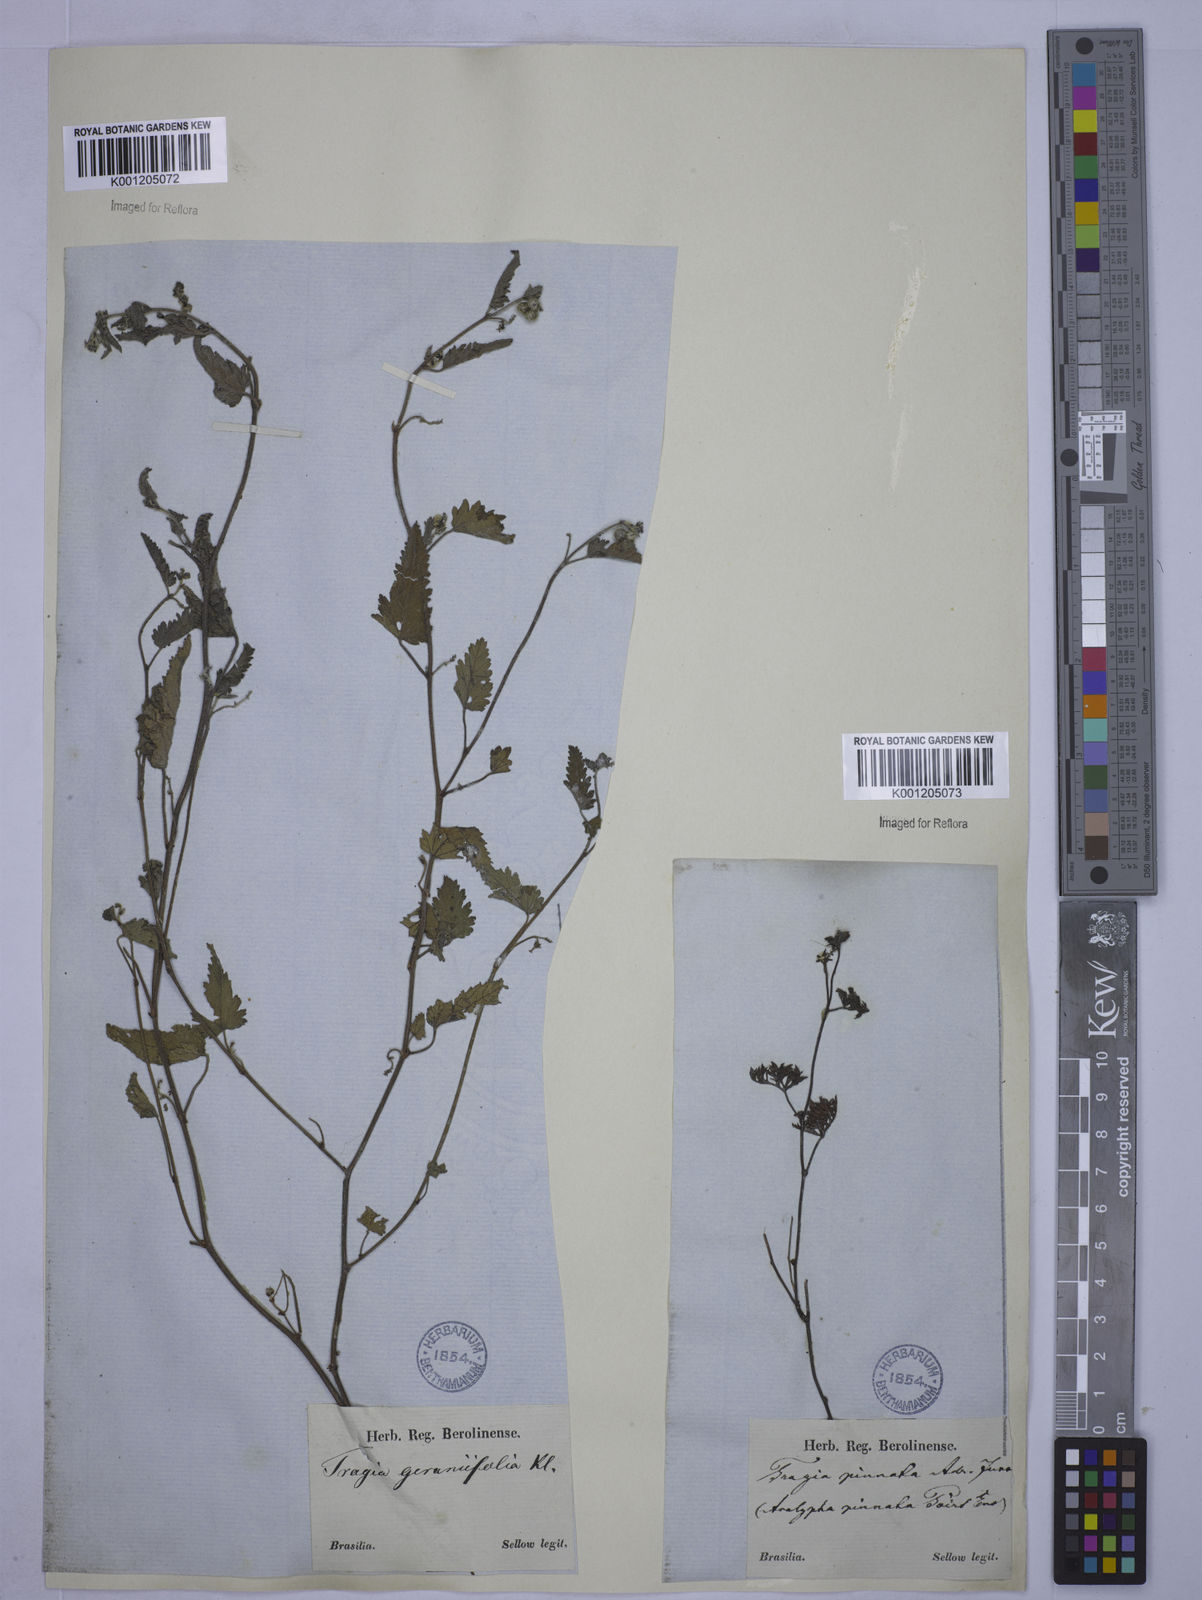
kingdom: Plantae
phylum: Tracheophyta
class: Magnoliopsida
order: Malpighiales
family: Euphorbiaceae
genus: Tragia
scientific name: Tragia
